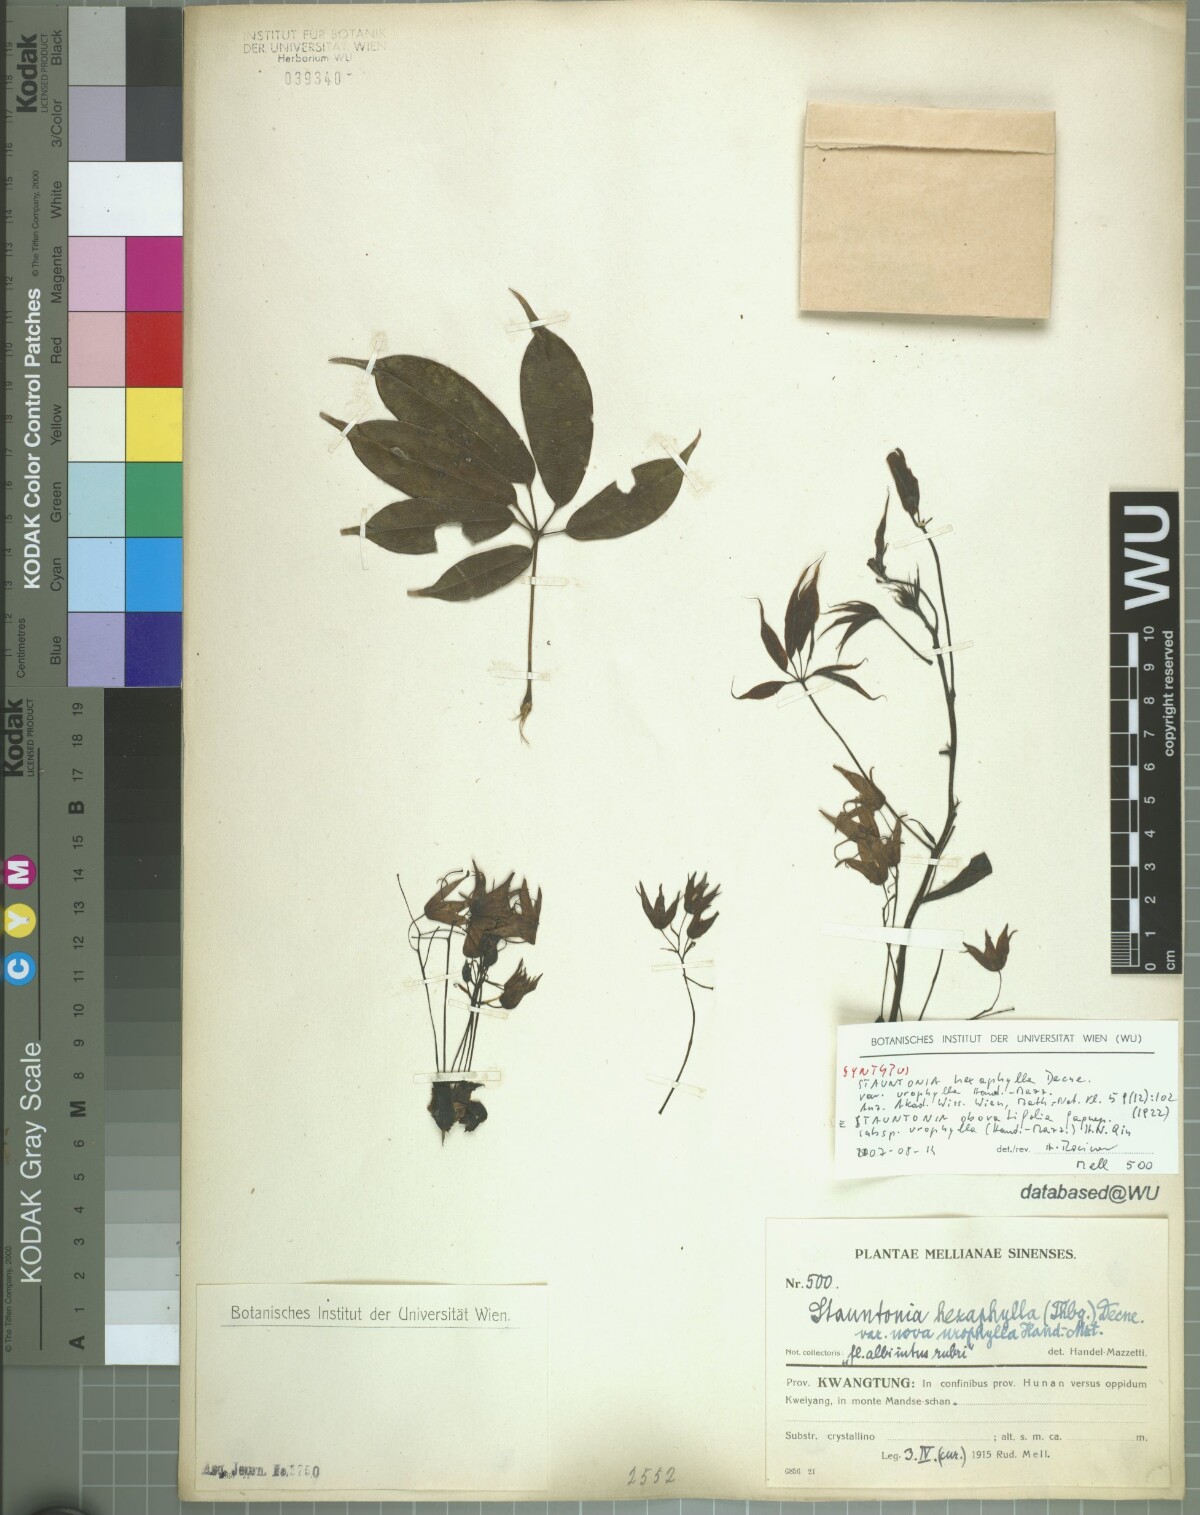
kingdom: Plantae
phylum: Tracheophyta
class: Magnoliopsida
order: Ranunculales
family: Lardizabalaceae
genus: Stauntonia
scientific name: Stauntonia yaoshanensis
